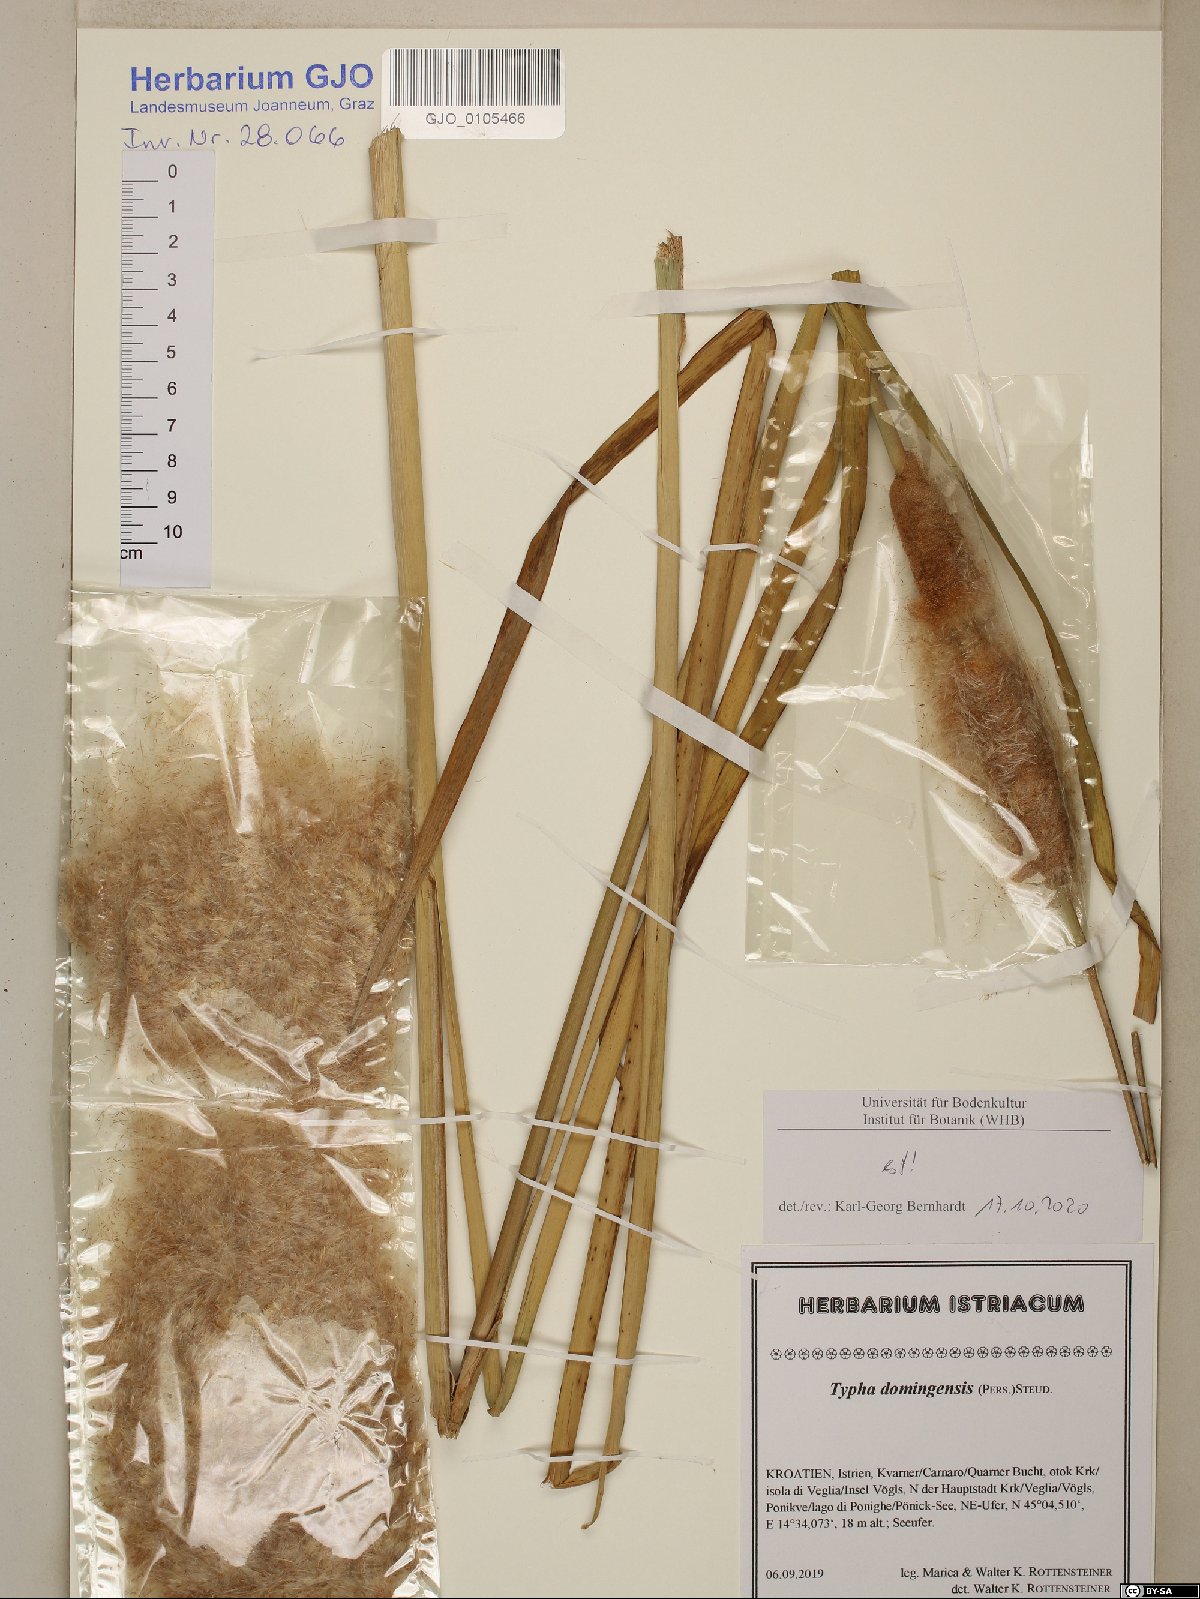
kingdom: Plantae
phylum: Tracheophyta
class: Liliopsida
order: Poales
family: Typhaceae
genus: Typha
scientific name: Typha domingensis
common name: Southern cattail
